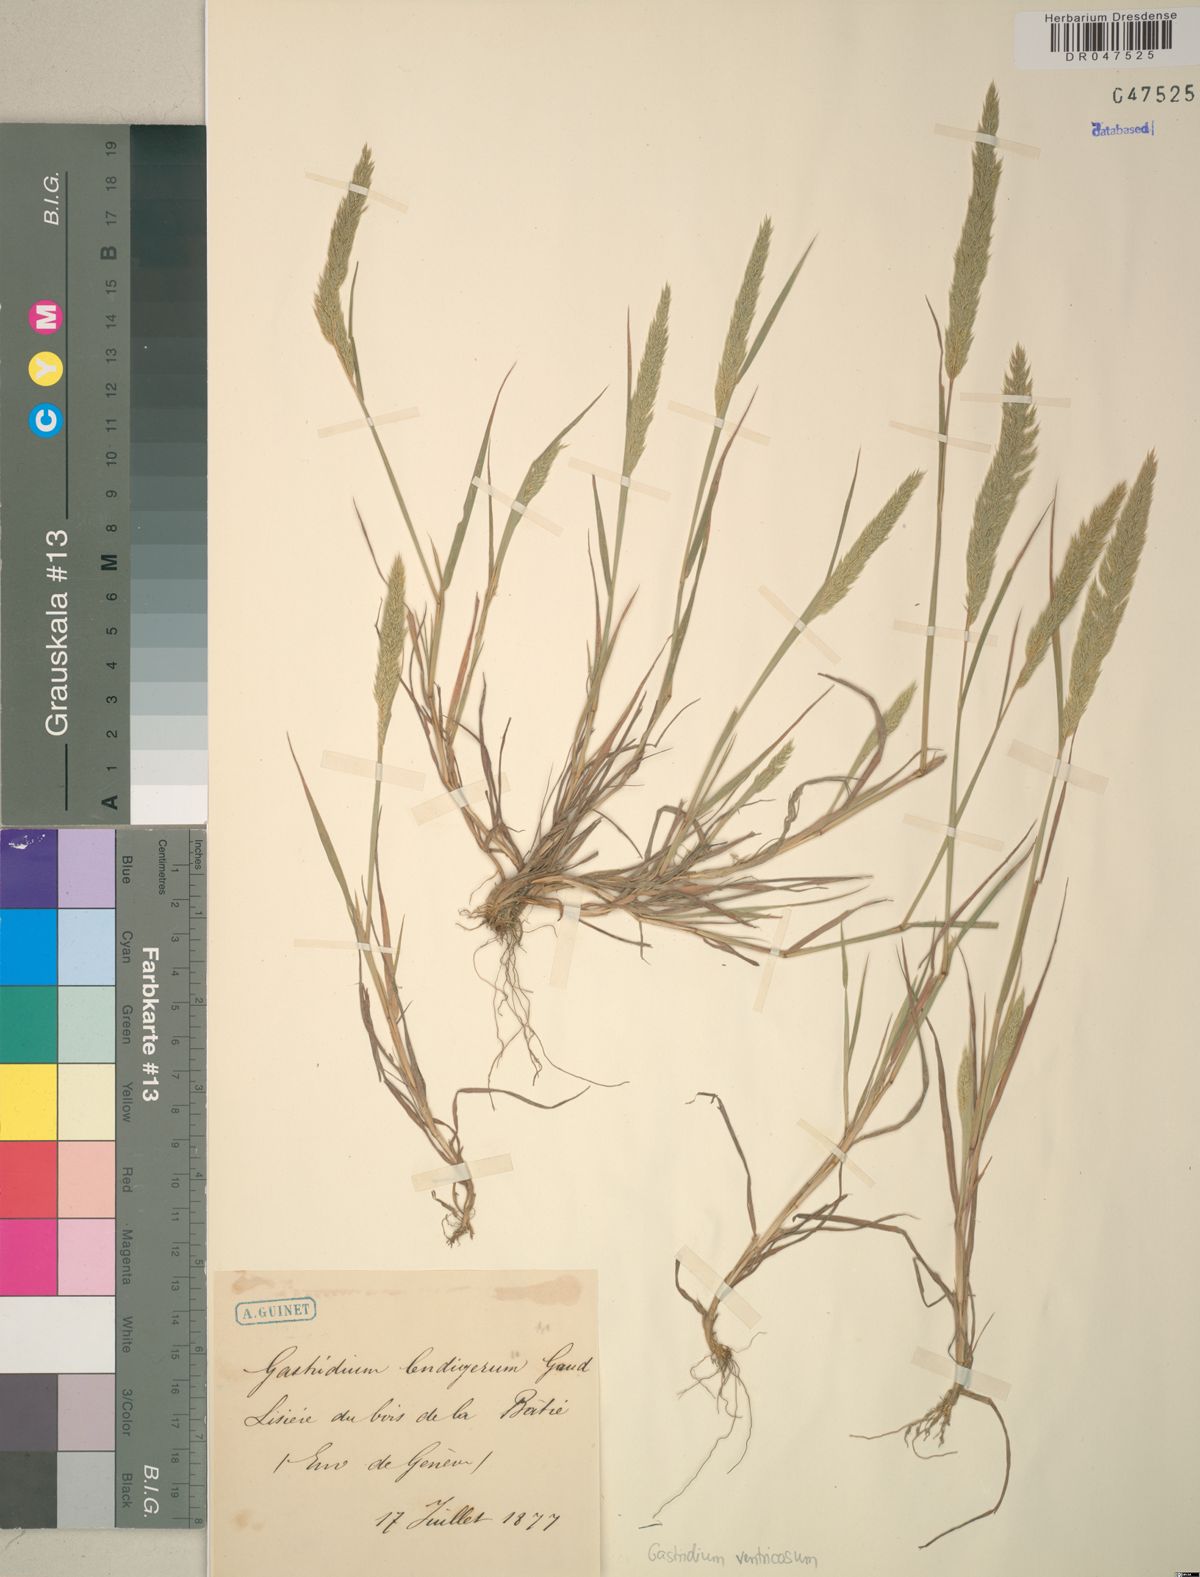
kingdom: Plantae
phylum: Tracheophyta
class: Liliopsida
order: Poales
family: Poaceae
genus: Gastridium
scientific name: Gastridium ventricosum
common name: Nit-grass
